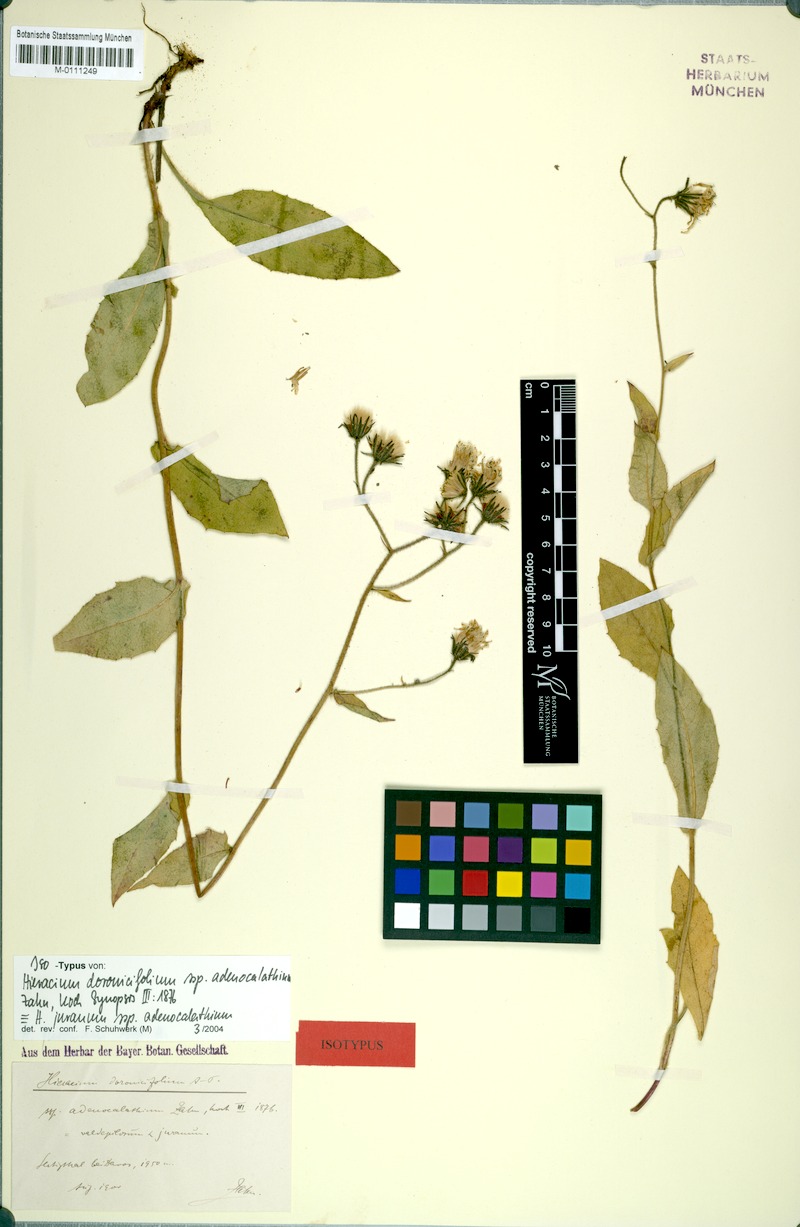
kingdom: Plantae
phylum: Tracheophyta
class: Magnoliopsida
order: Asterales
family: Asteraceae
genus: Hieracium
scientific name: Hieracium doronicifolium
